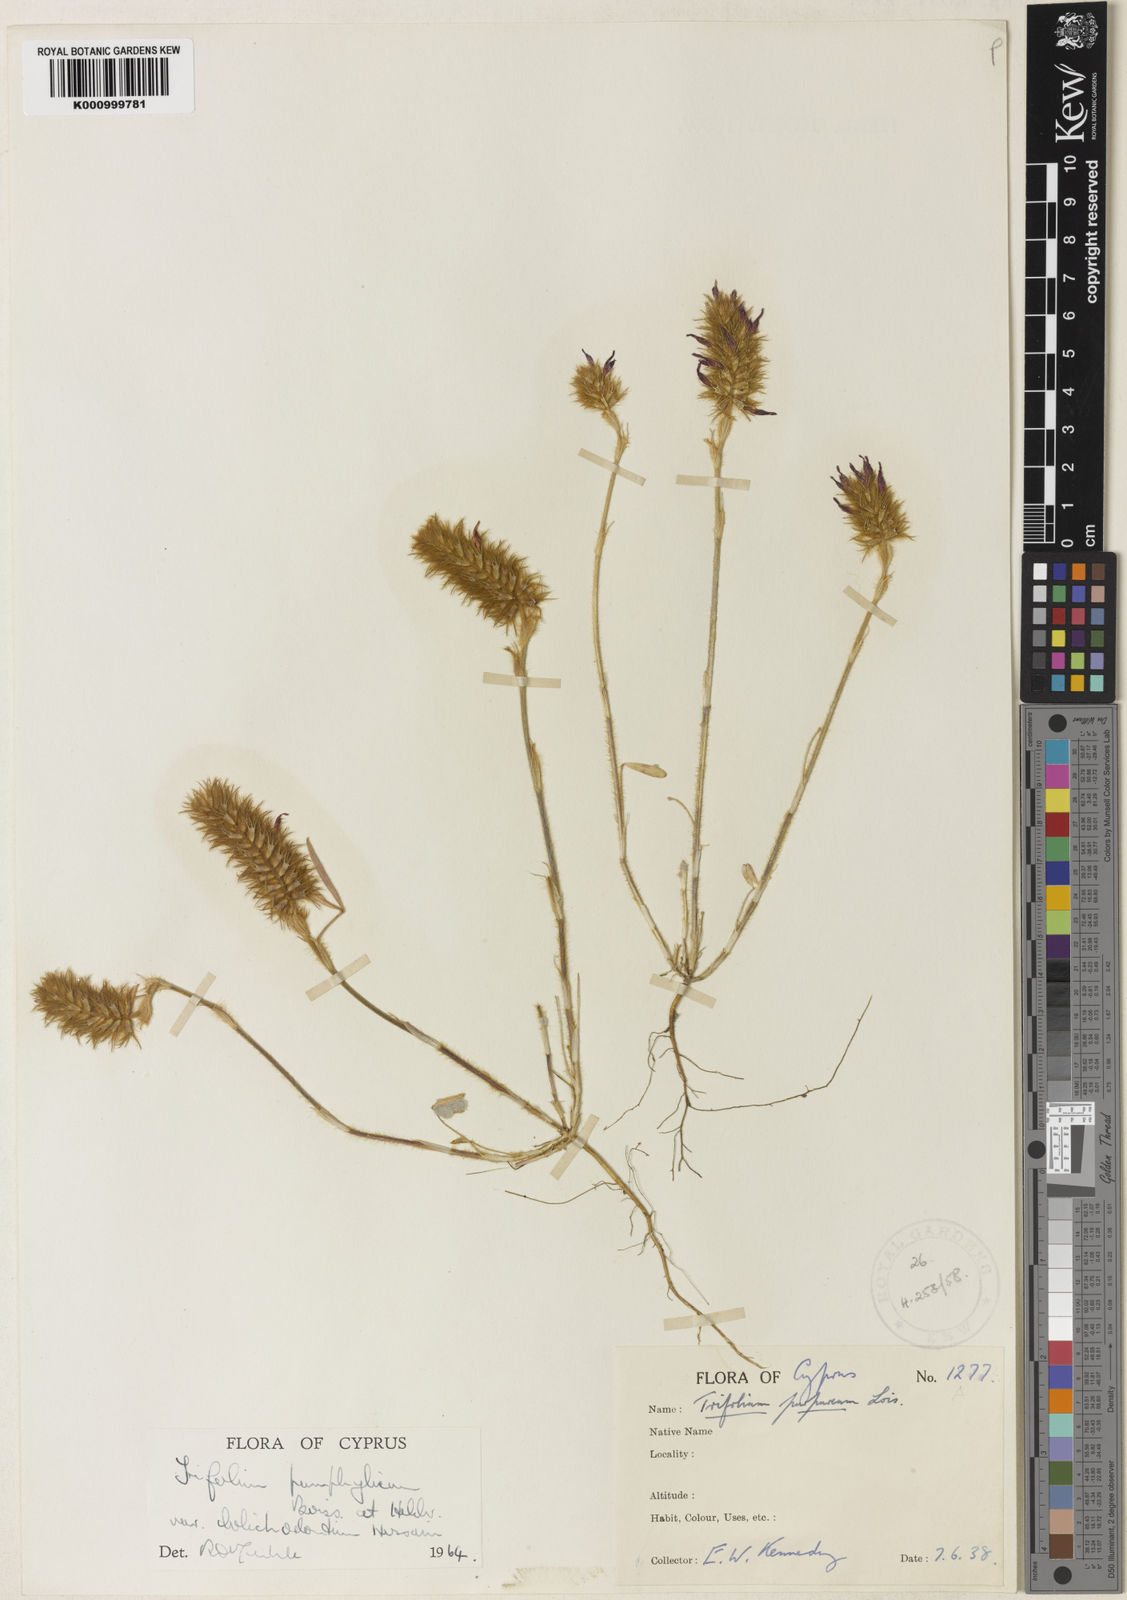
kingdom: Plantae
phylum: Tracheophyta
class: Magnoliopsida
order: Fabales
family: Fabaceae
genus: Trifolium
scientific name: Trifolium pamphylicum
